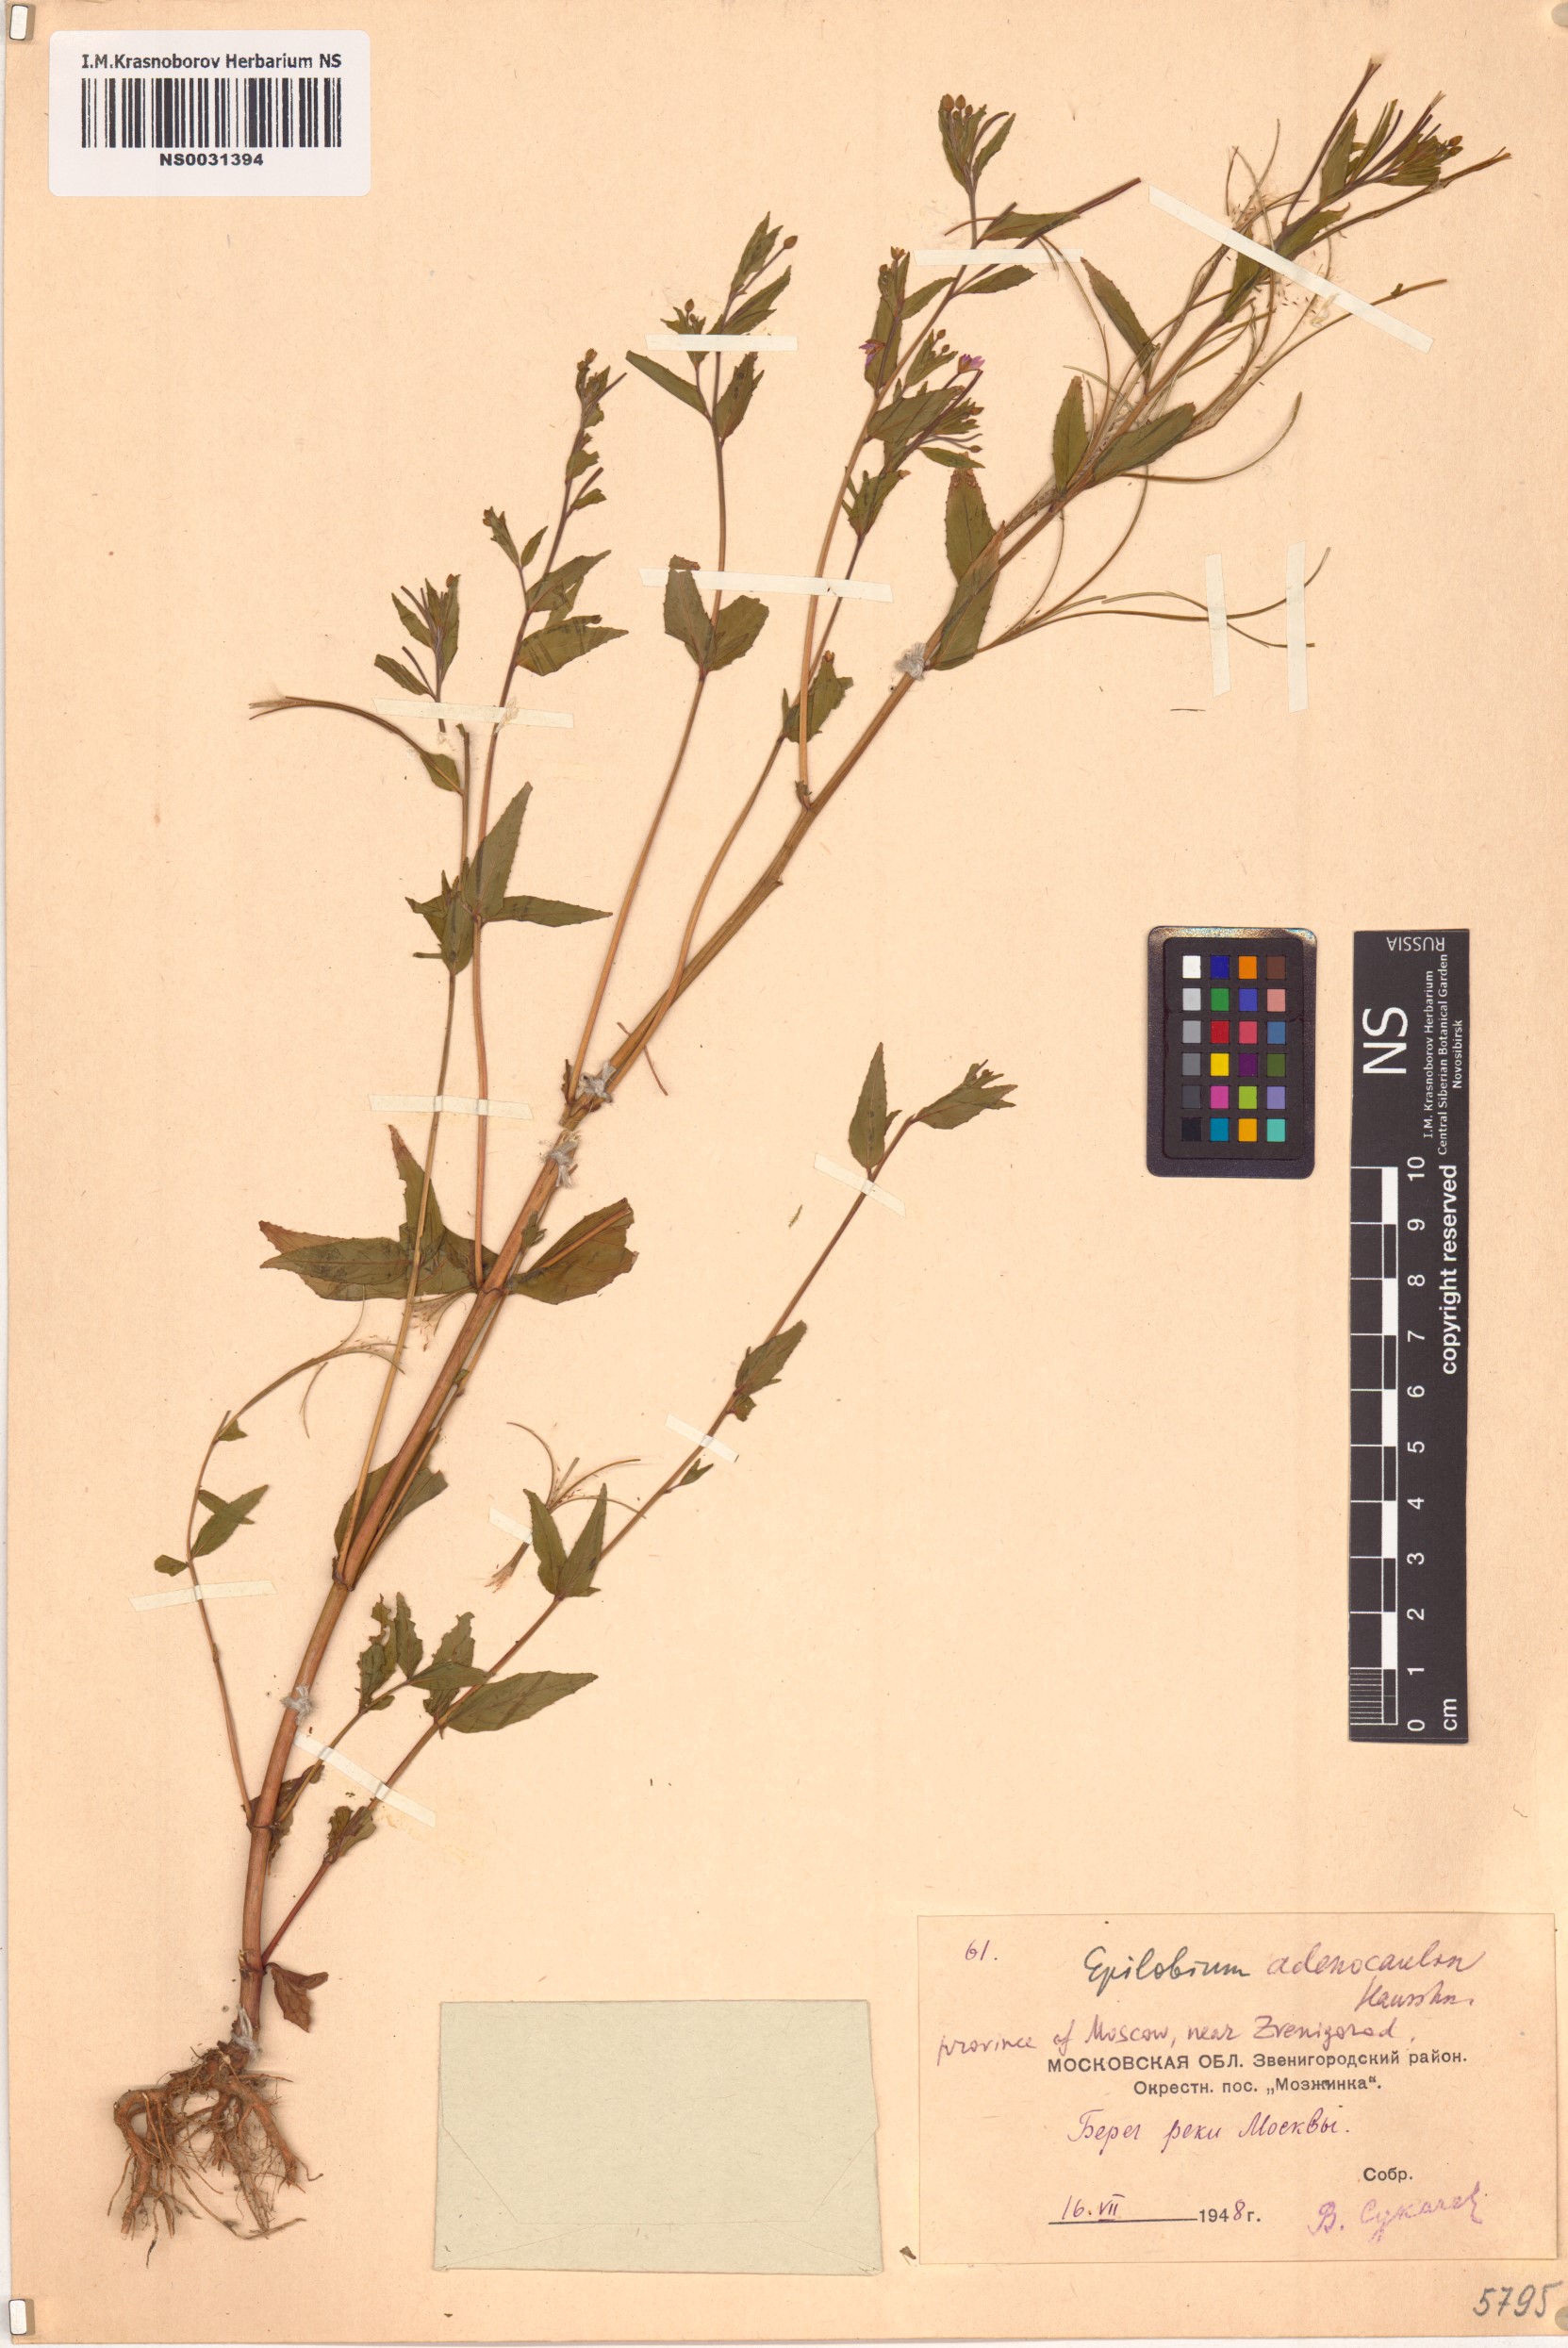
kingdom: Plantae
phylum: Tracheophyta
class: Magnoliopsida
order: Myrtales
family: Onagraceae
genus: Epilobium
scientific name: Epilobium ciliatum
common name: American willowherb
